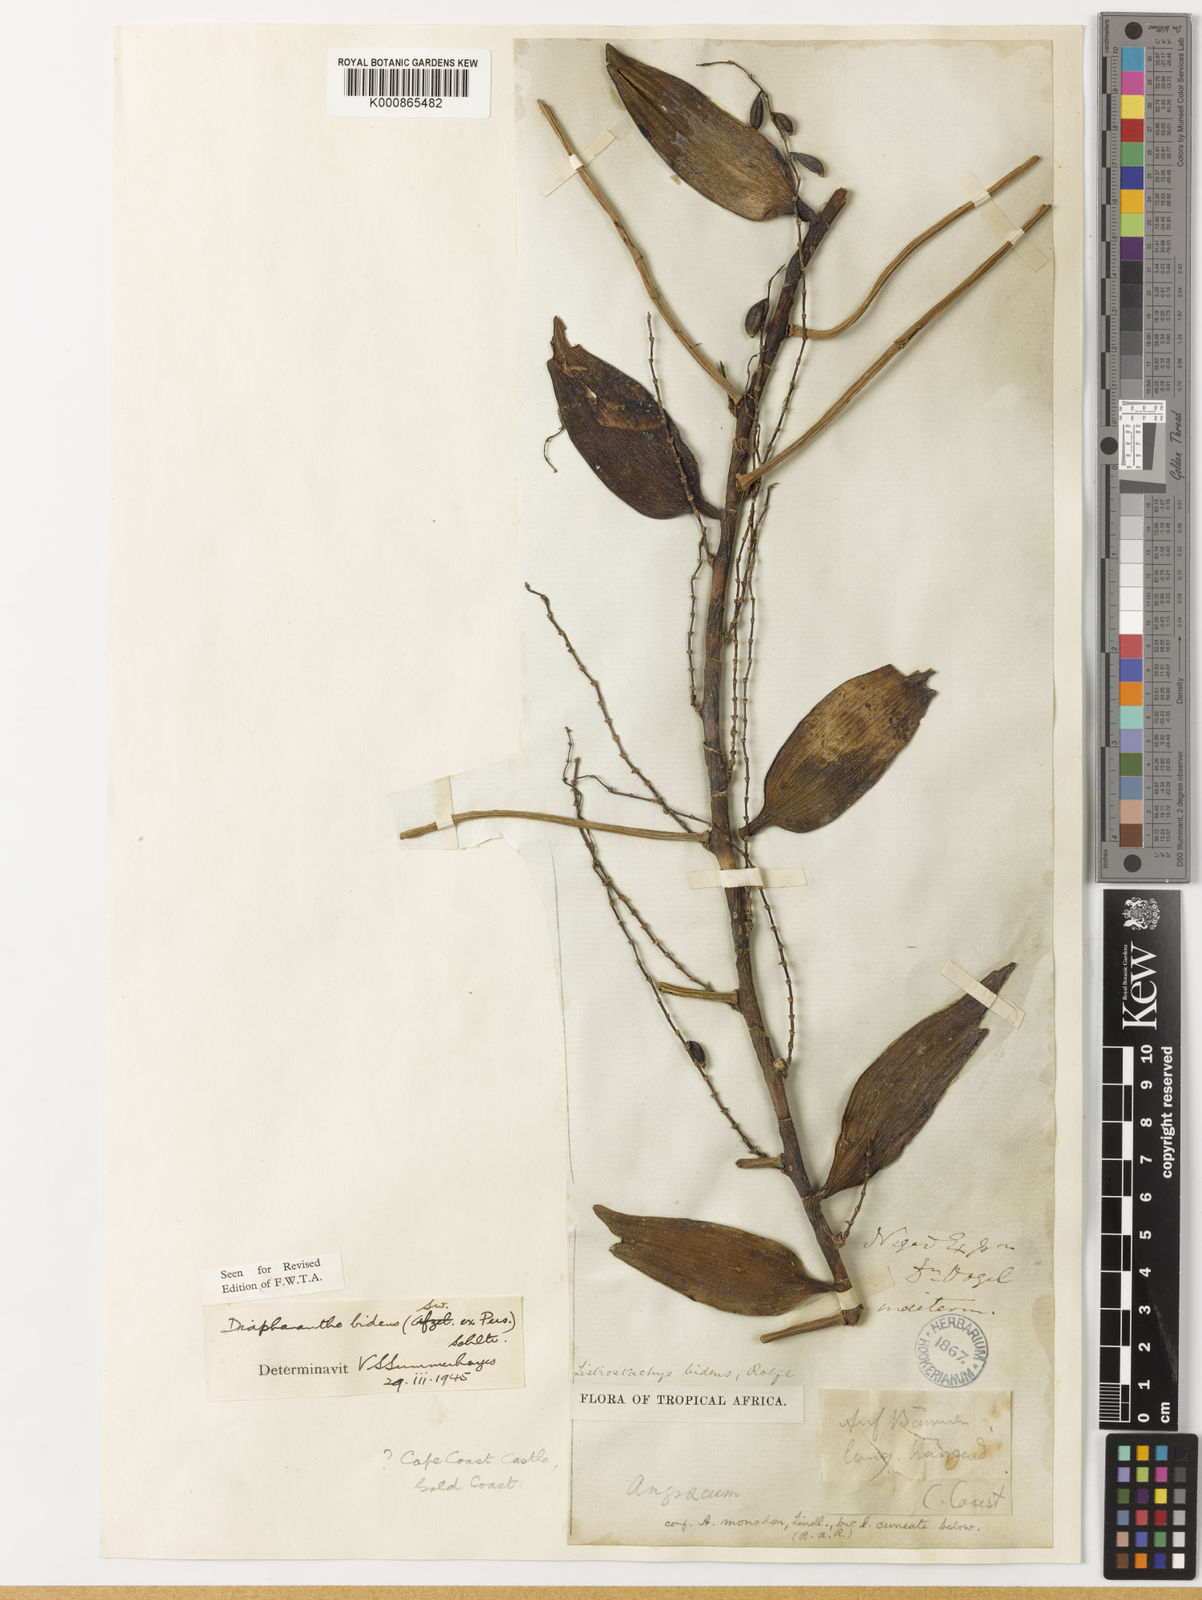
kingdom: Plantae
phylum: Tracheophyta
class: Liliopsida
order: Asparagales
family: Orchidaceae
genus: Diaphananthe
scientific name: Diaphananthe bidens
